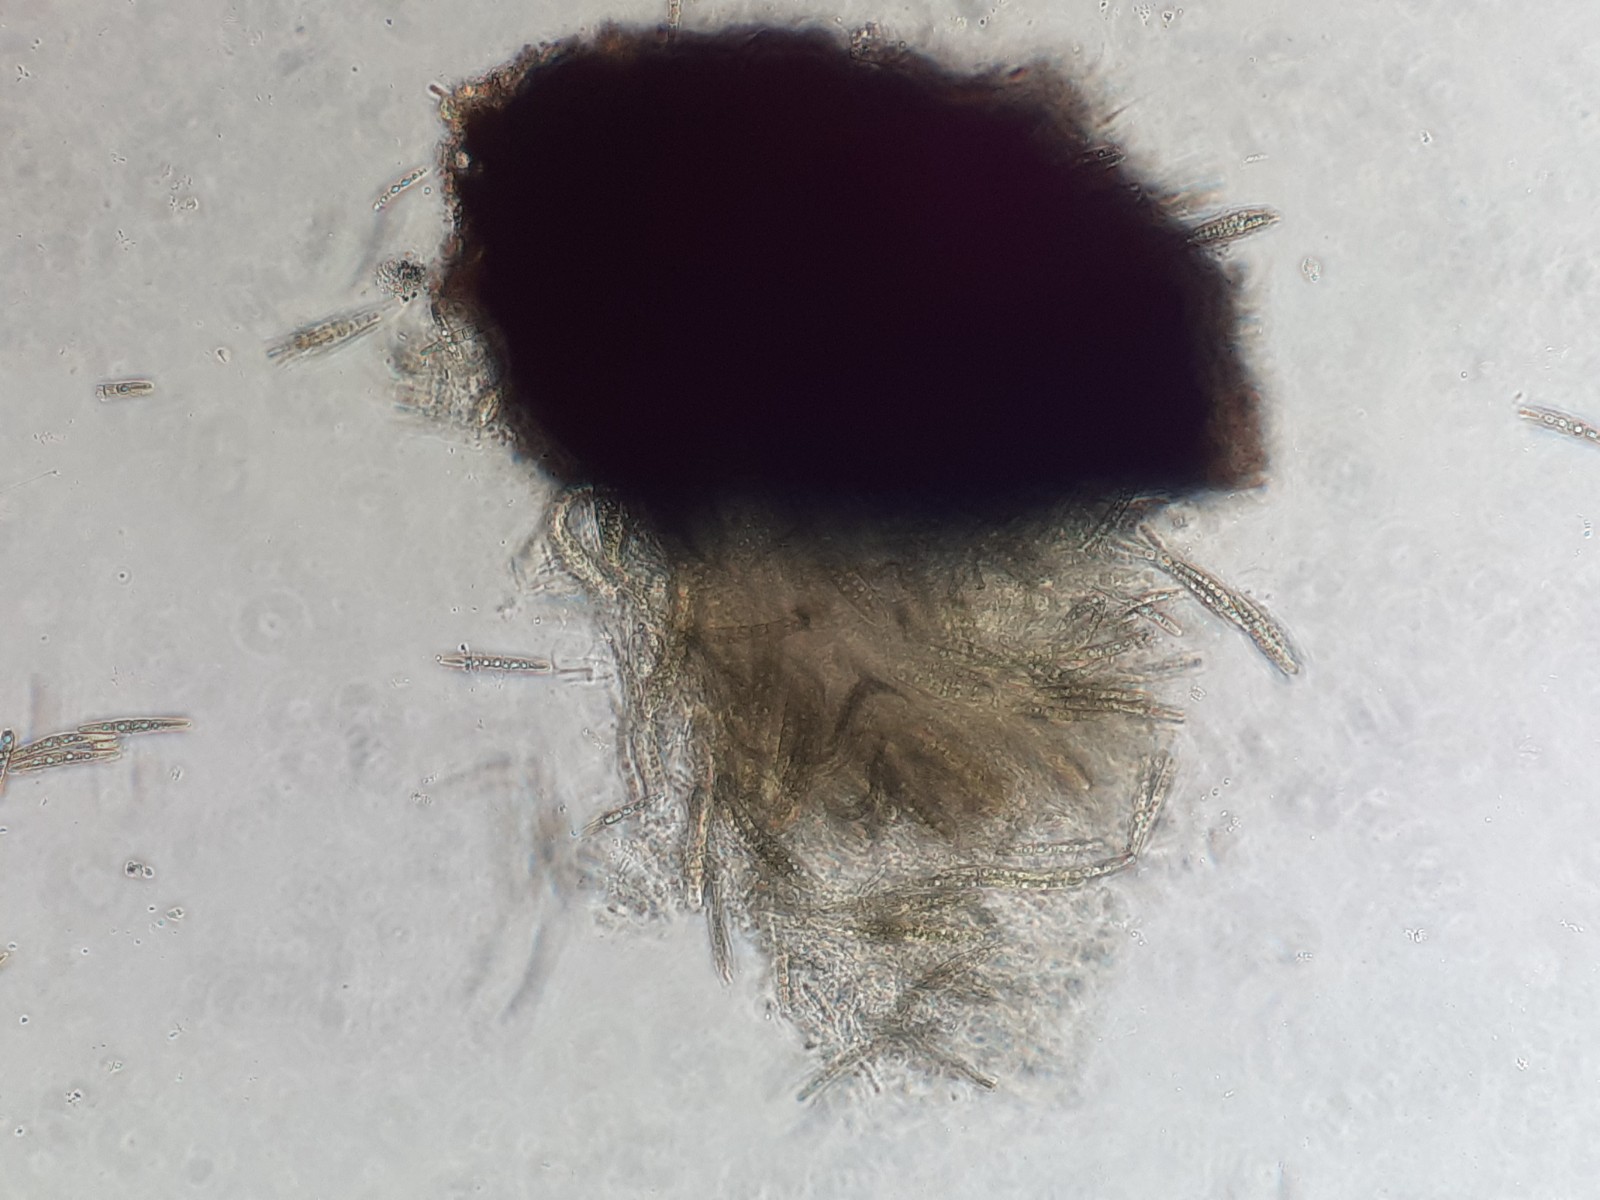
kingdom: Fungi
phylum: Ascomycota
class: Dothideomycetes
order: Pleosporales
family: Phaeosphaeriaceae
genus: Phaeosphaeria
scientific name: Phaeosphaeria sowerbyi
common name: kål-kulkegle
